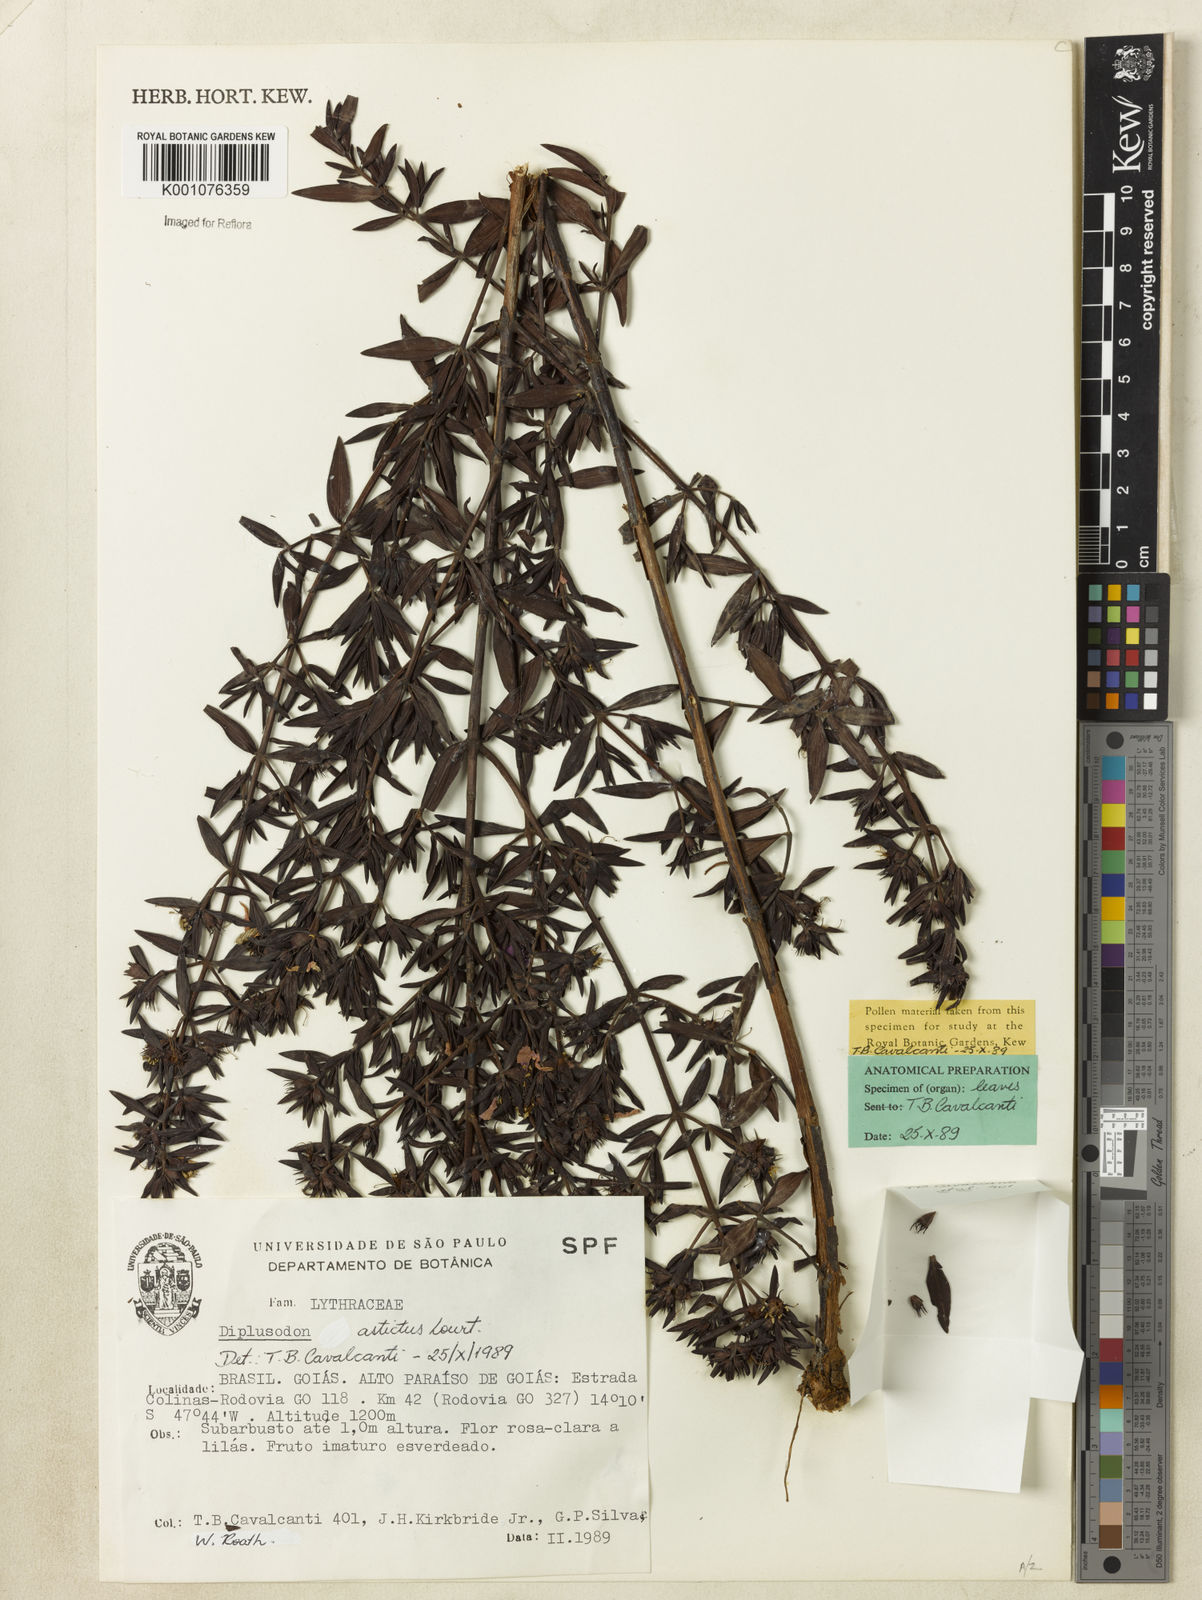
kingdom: Plantae
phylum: Tracheophyta
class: Magnoliopsida
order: Myrtales
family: Lythraceae
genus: Diplusodon
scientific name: Diplusodon astictus
